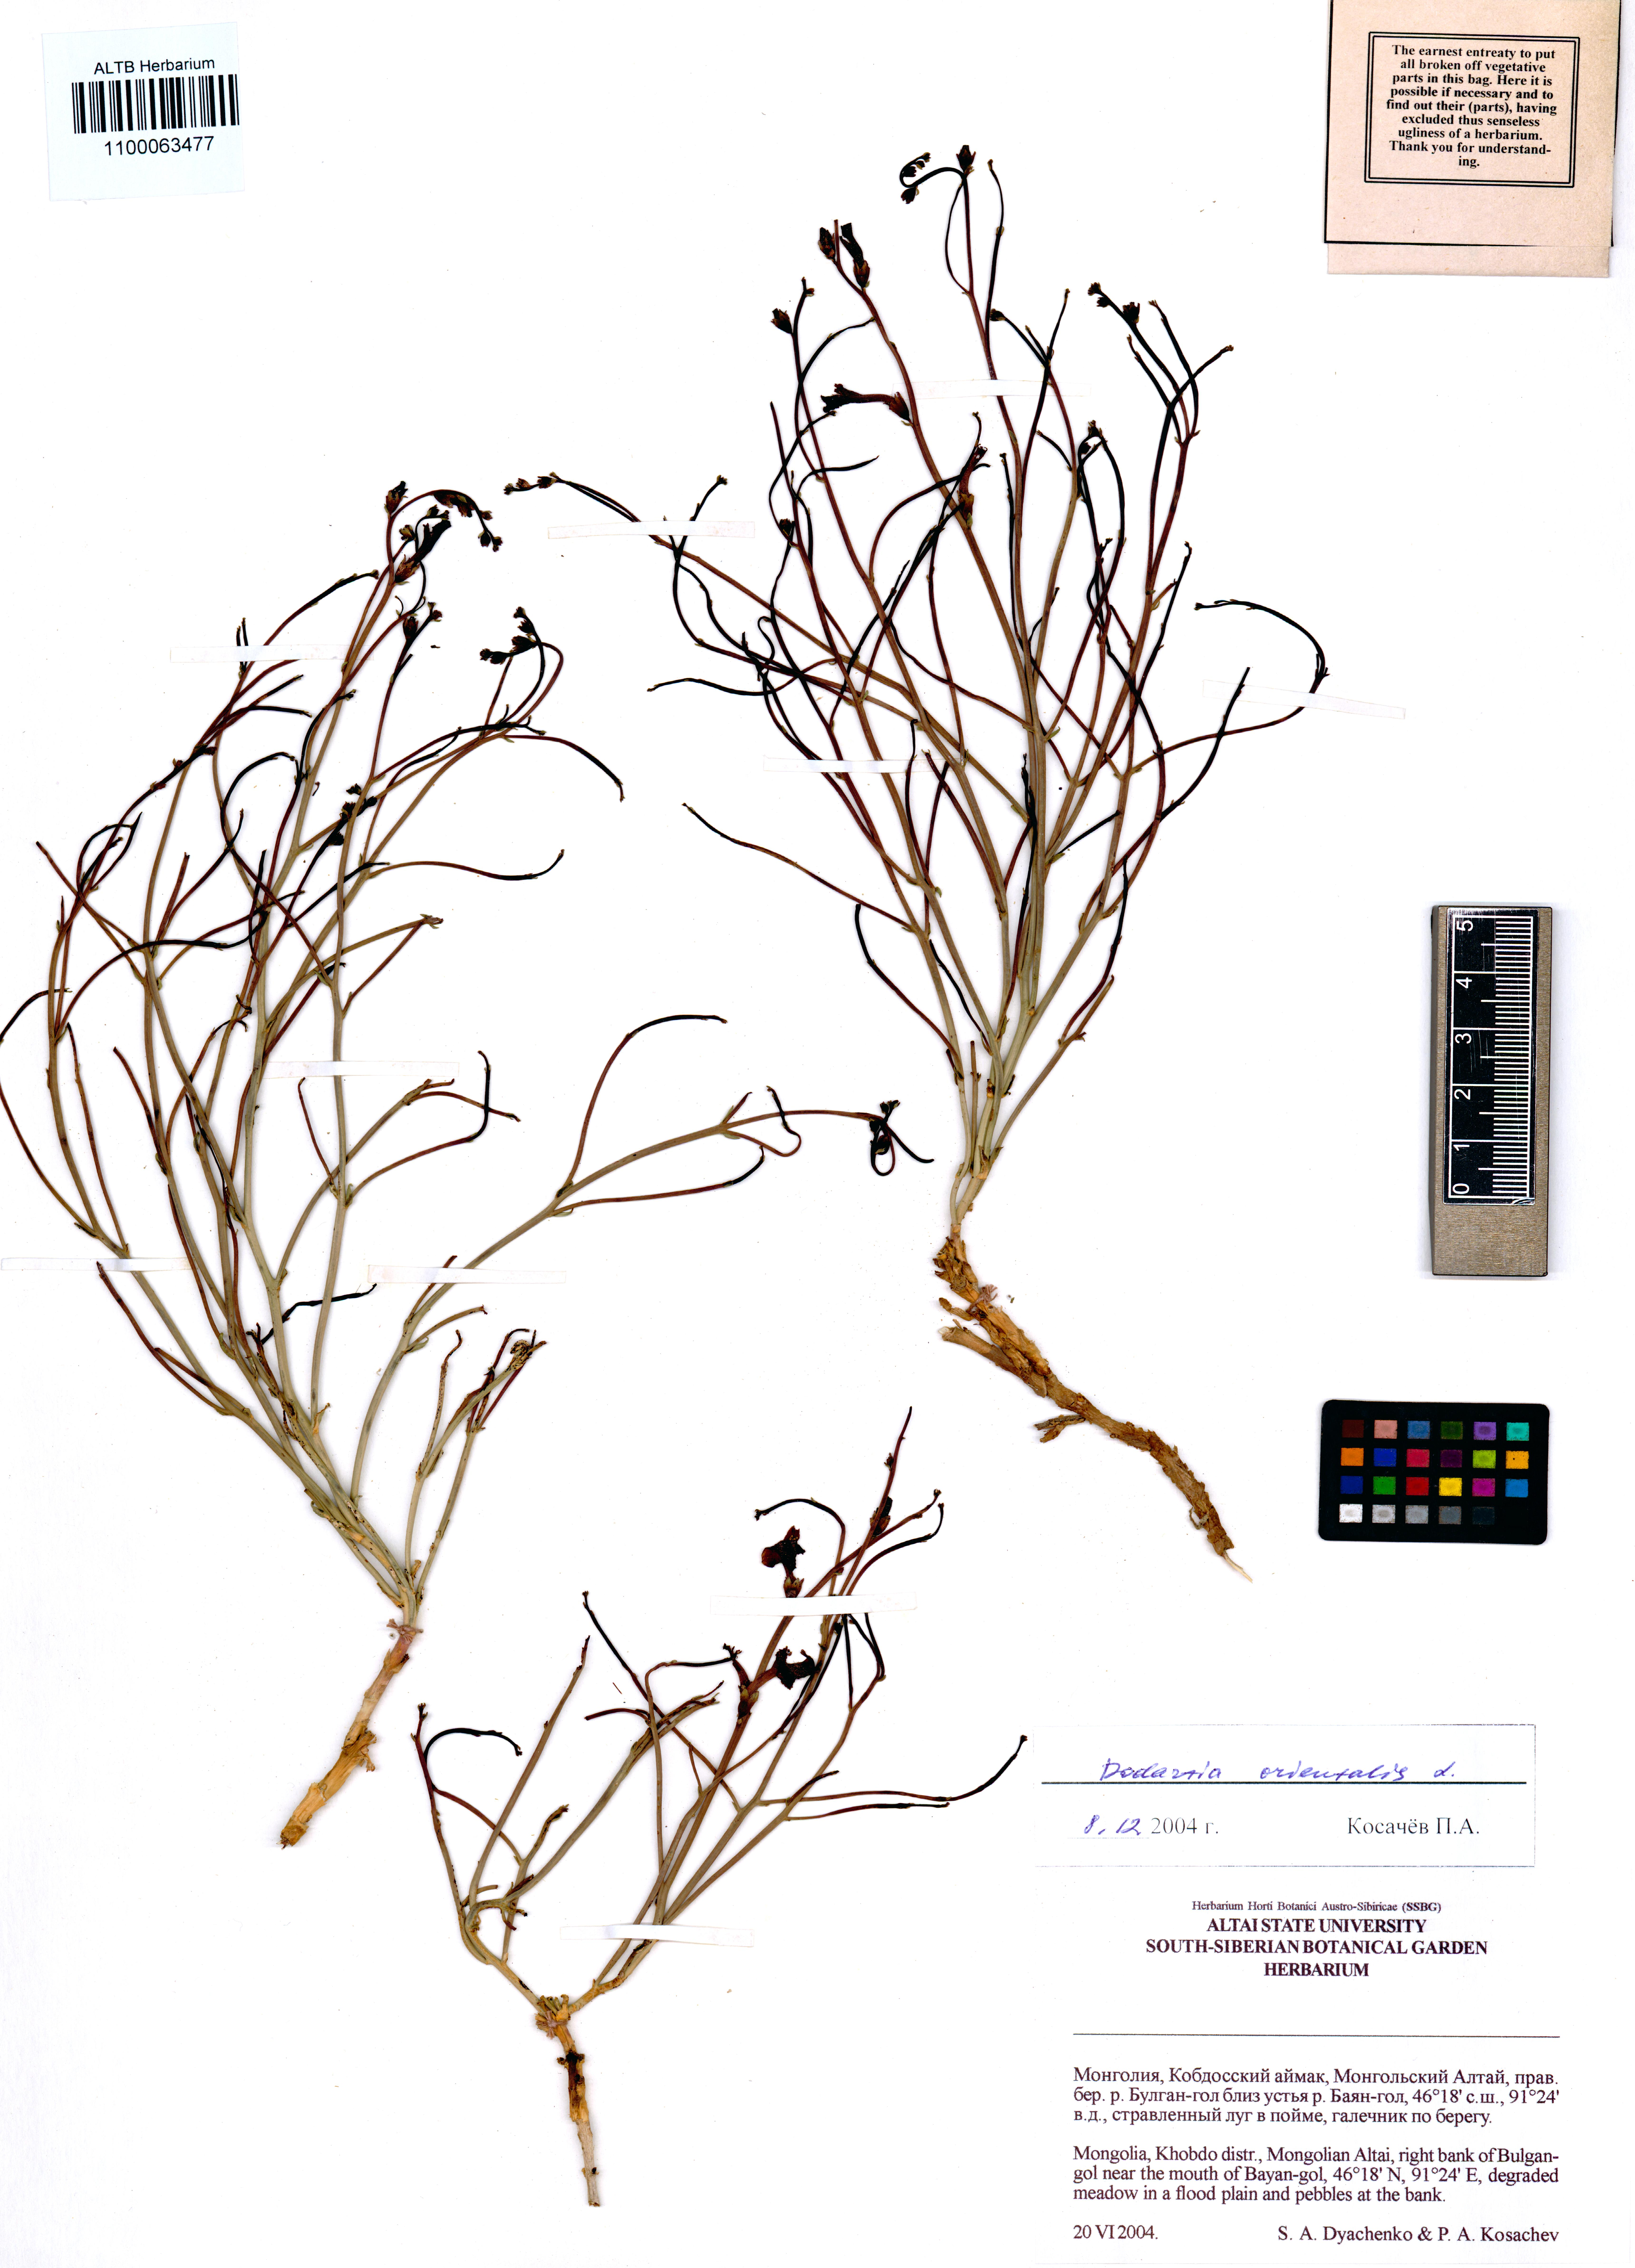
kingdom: Plantae
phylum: Tracheophyta
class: Magnoliopsida
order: Lamiales
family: Mazaceae
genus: Dodartia
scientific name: Dodartia orientalis
